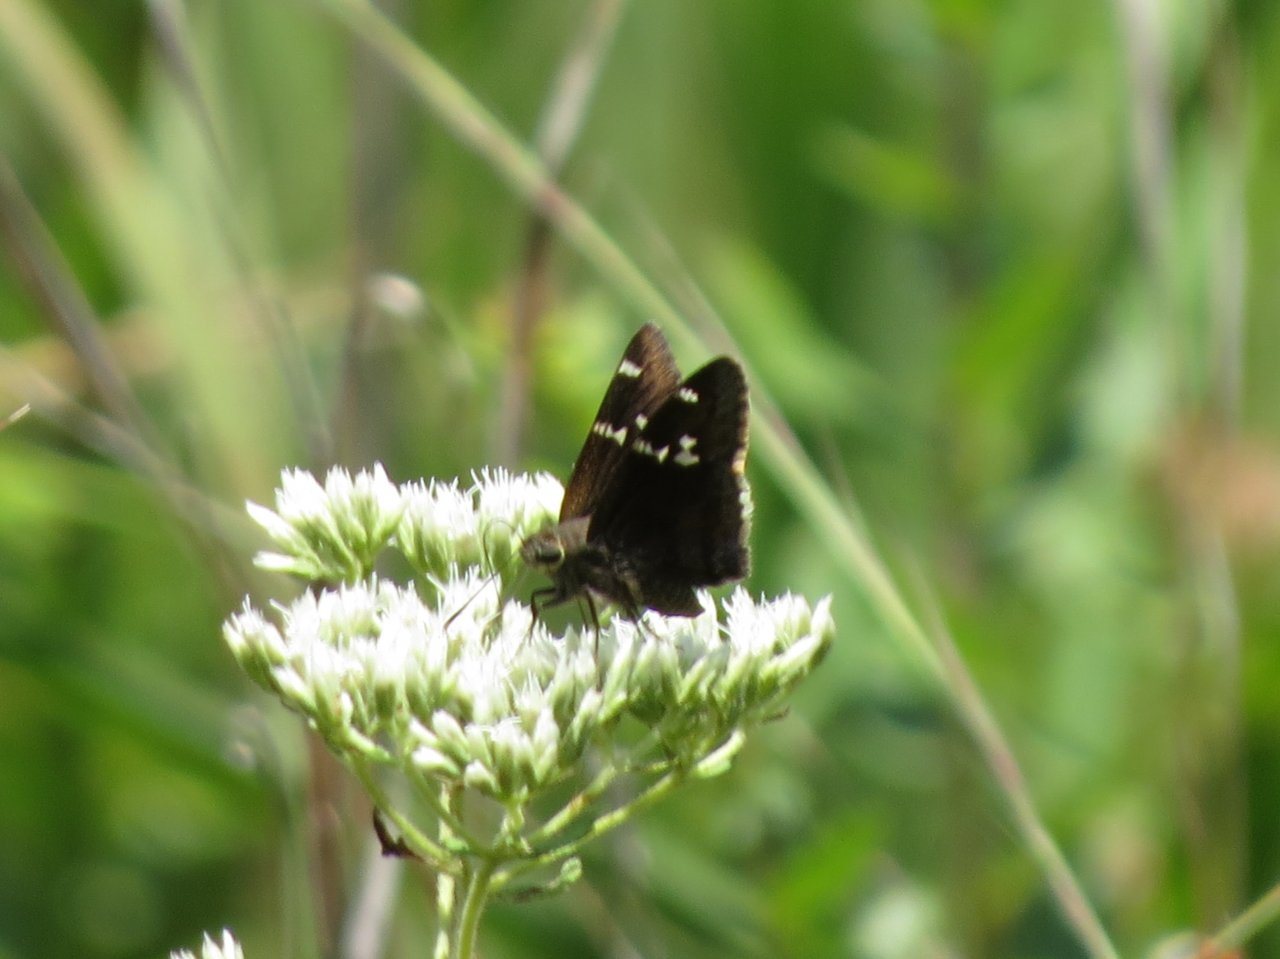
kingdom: Animalia
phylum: Arthropoda
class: Insecta
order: Lepidoptera
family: Hesperiidae
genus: Autochton
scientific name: Autochton
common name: Southern Cloudywing
